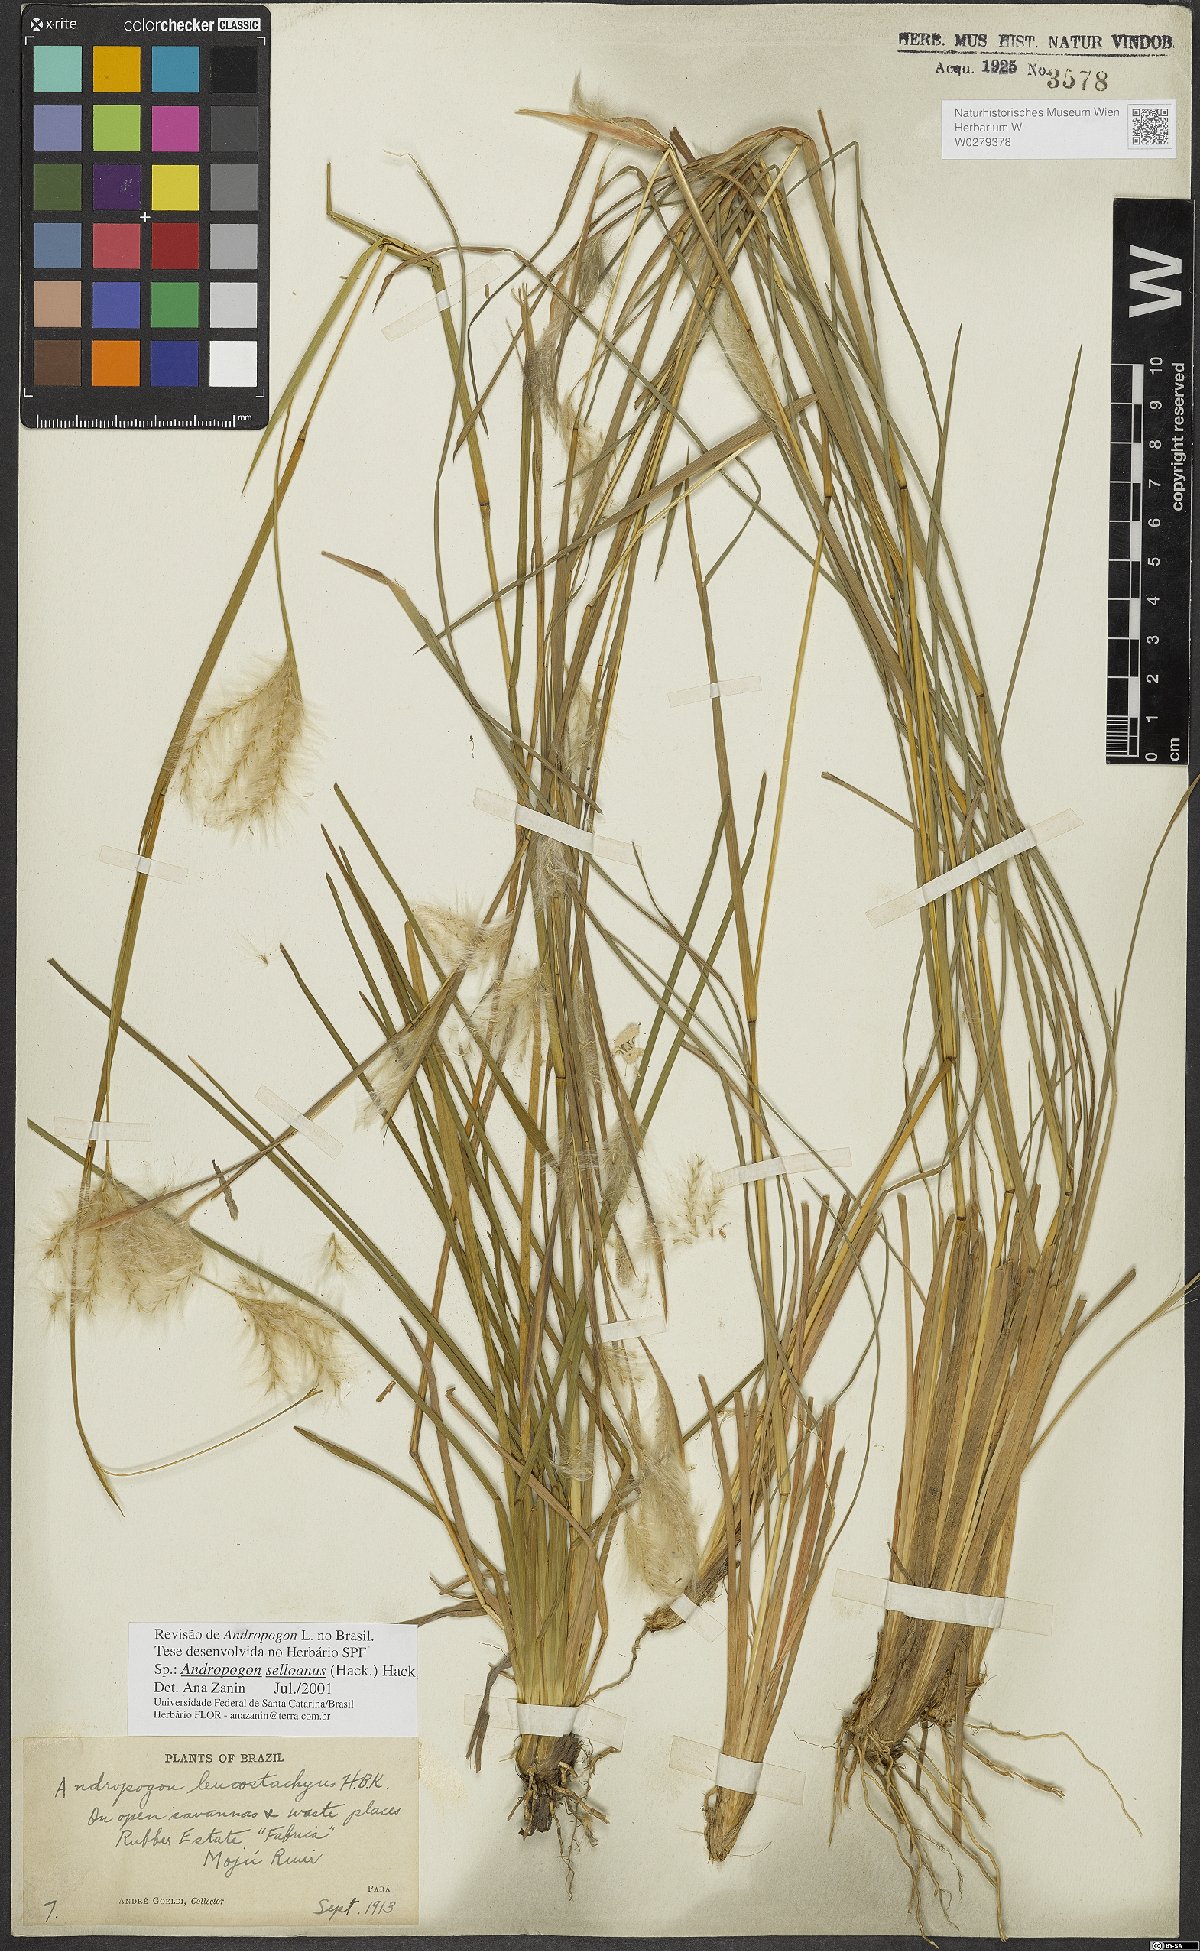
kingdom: Plantae
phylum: Tracheophyta
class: Liliopsida
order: Poales
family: Poaceae
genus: Andropogon
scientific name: Andropogon selloanus
